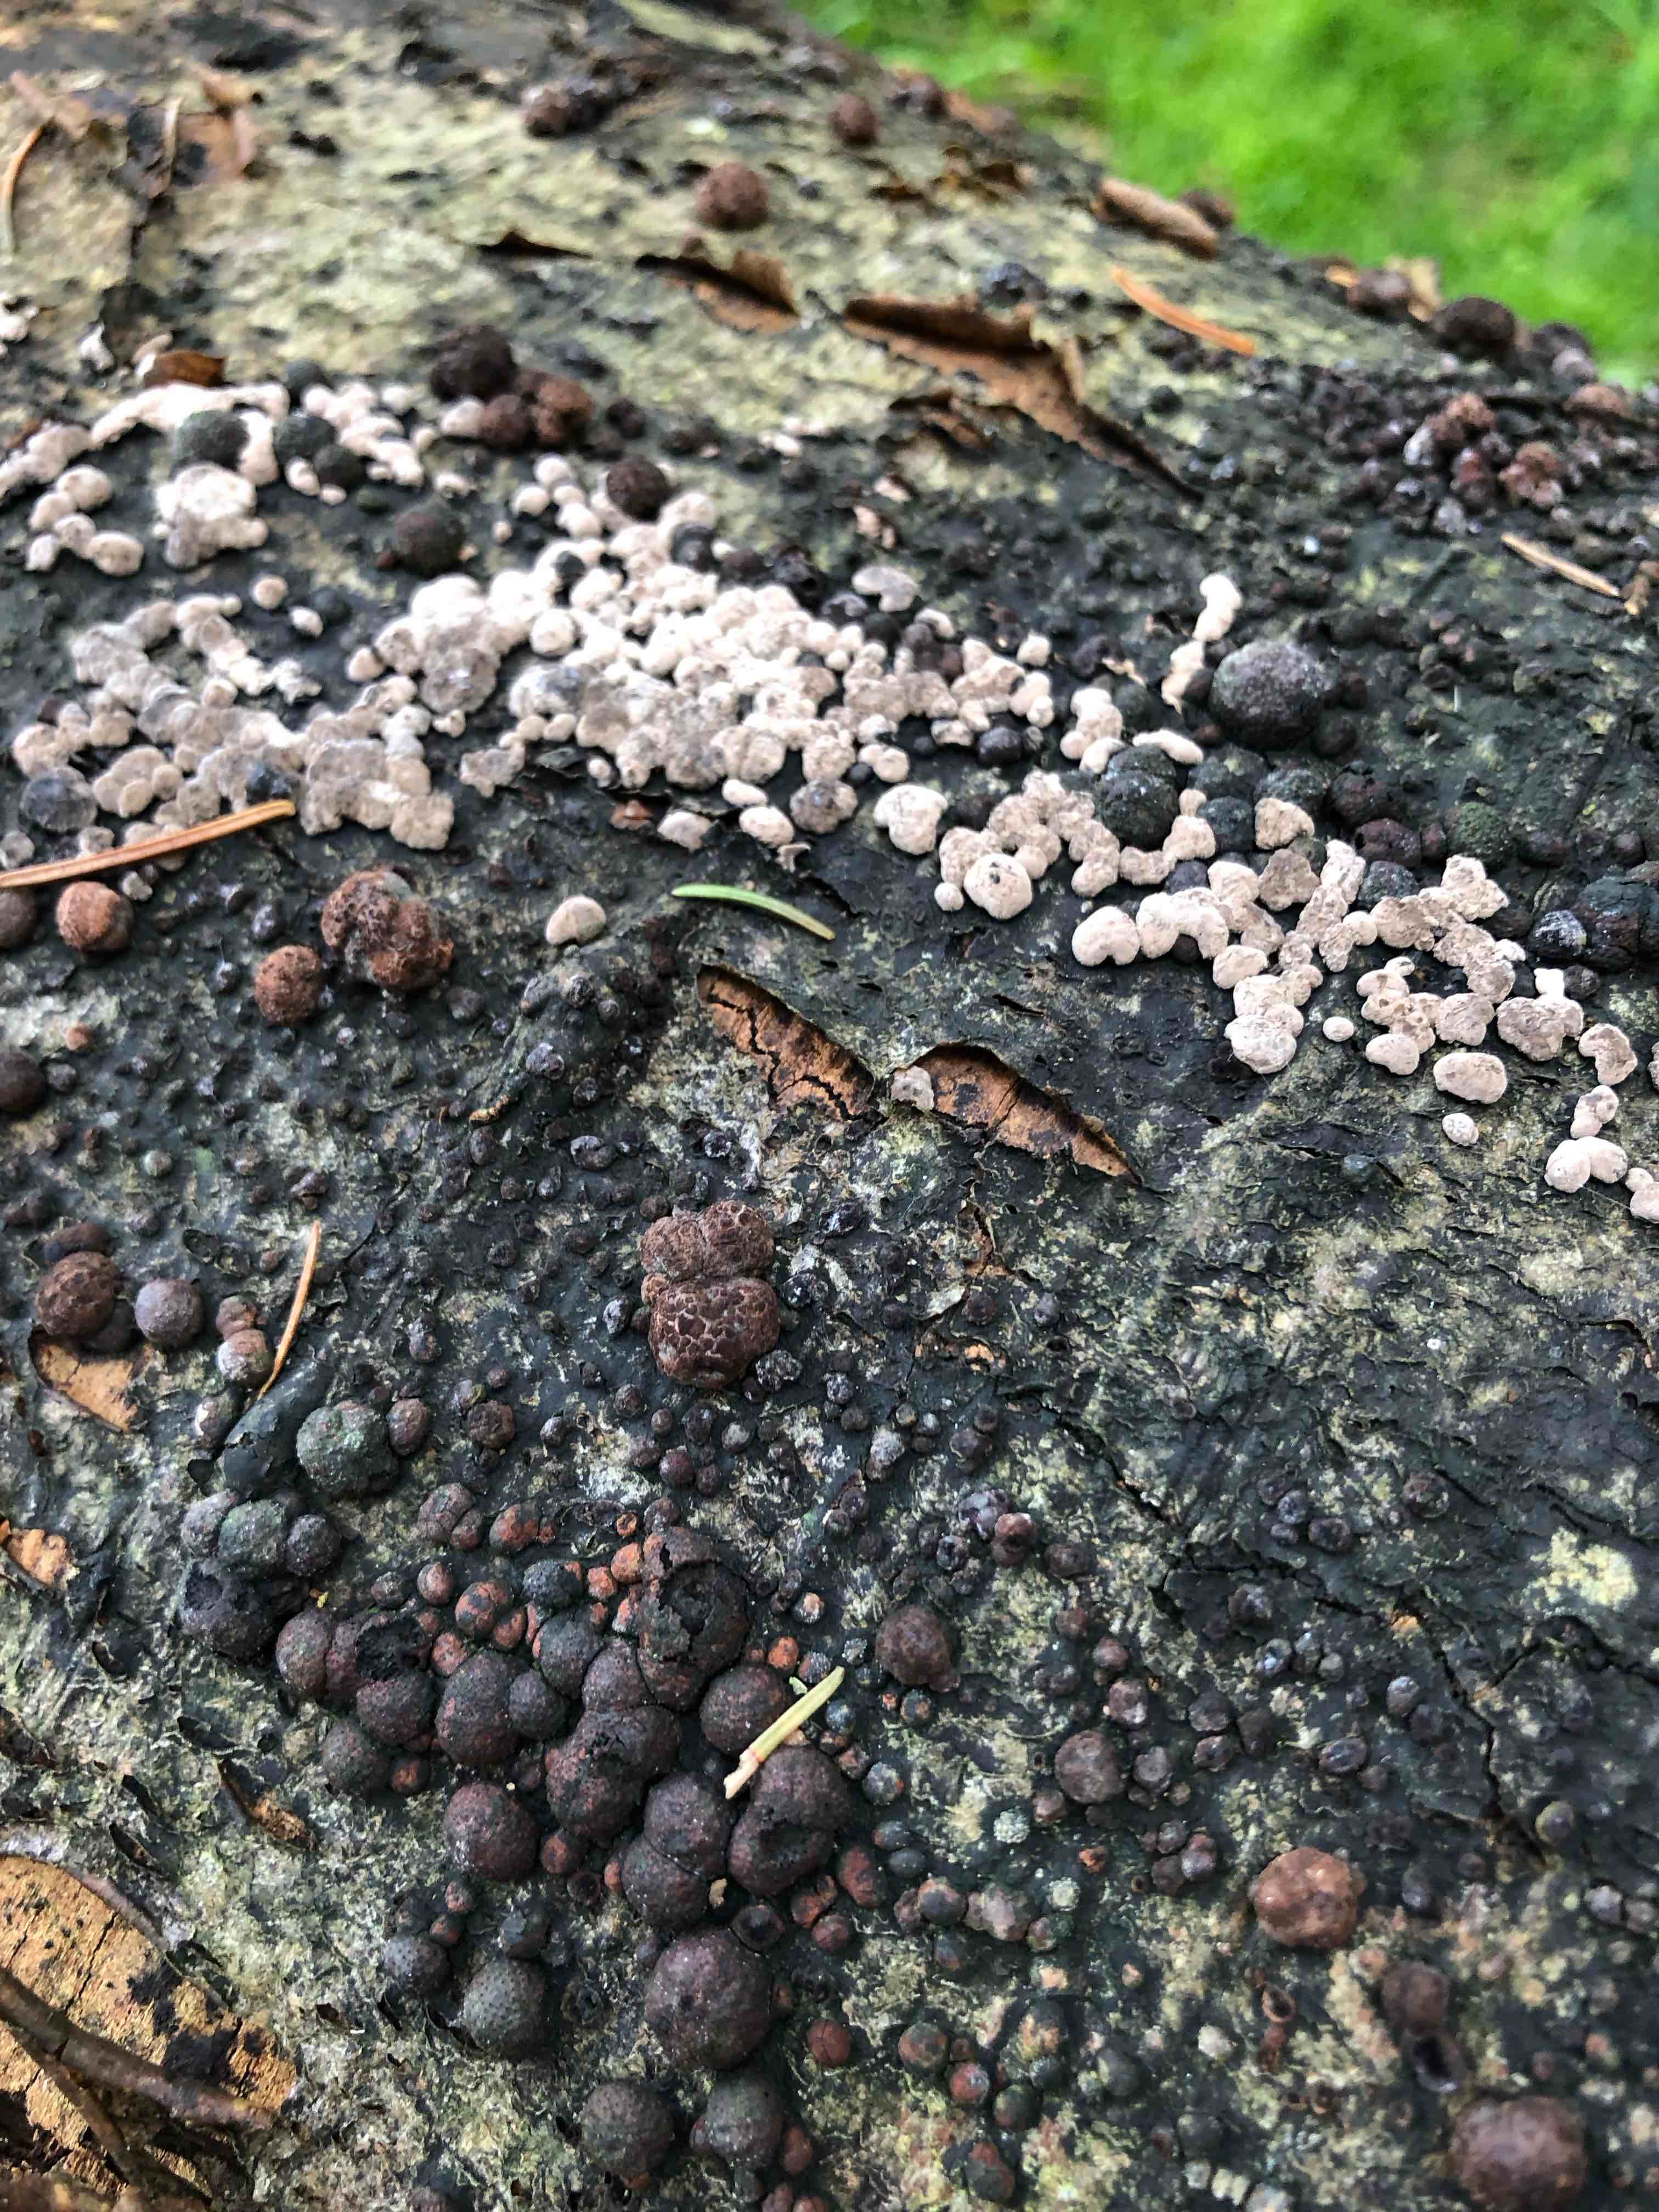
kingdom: Fungi
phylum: Ascomycota
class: Sordariomycetes
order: Xylariales
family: Hypoxylaceae
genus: Hypoxylon
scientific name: Hypoxylon fragiforme
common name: kuljordbær
